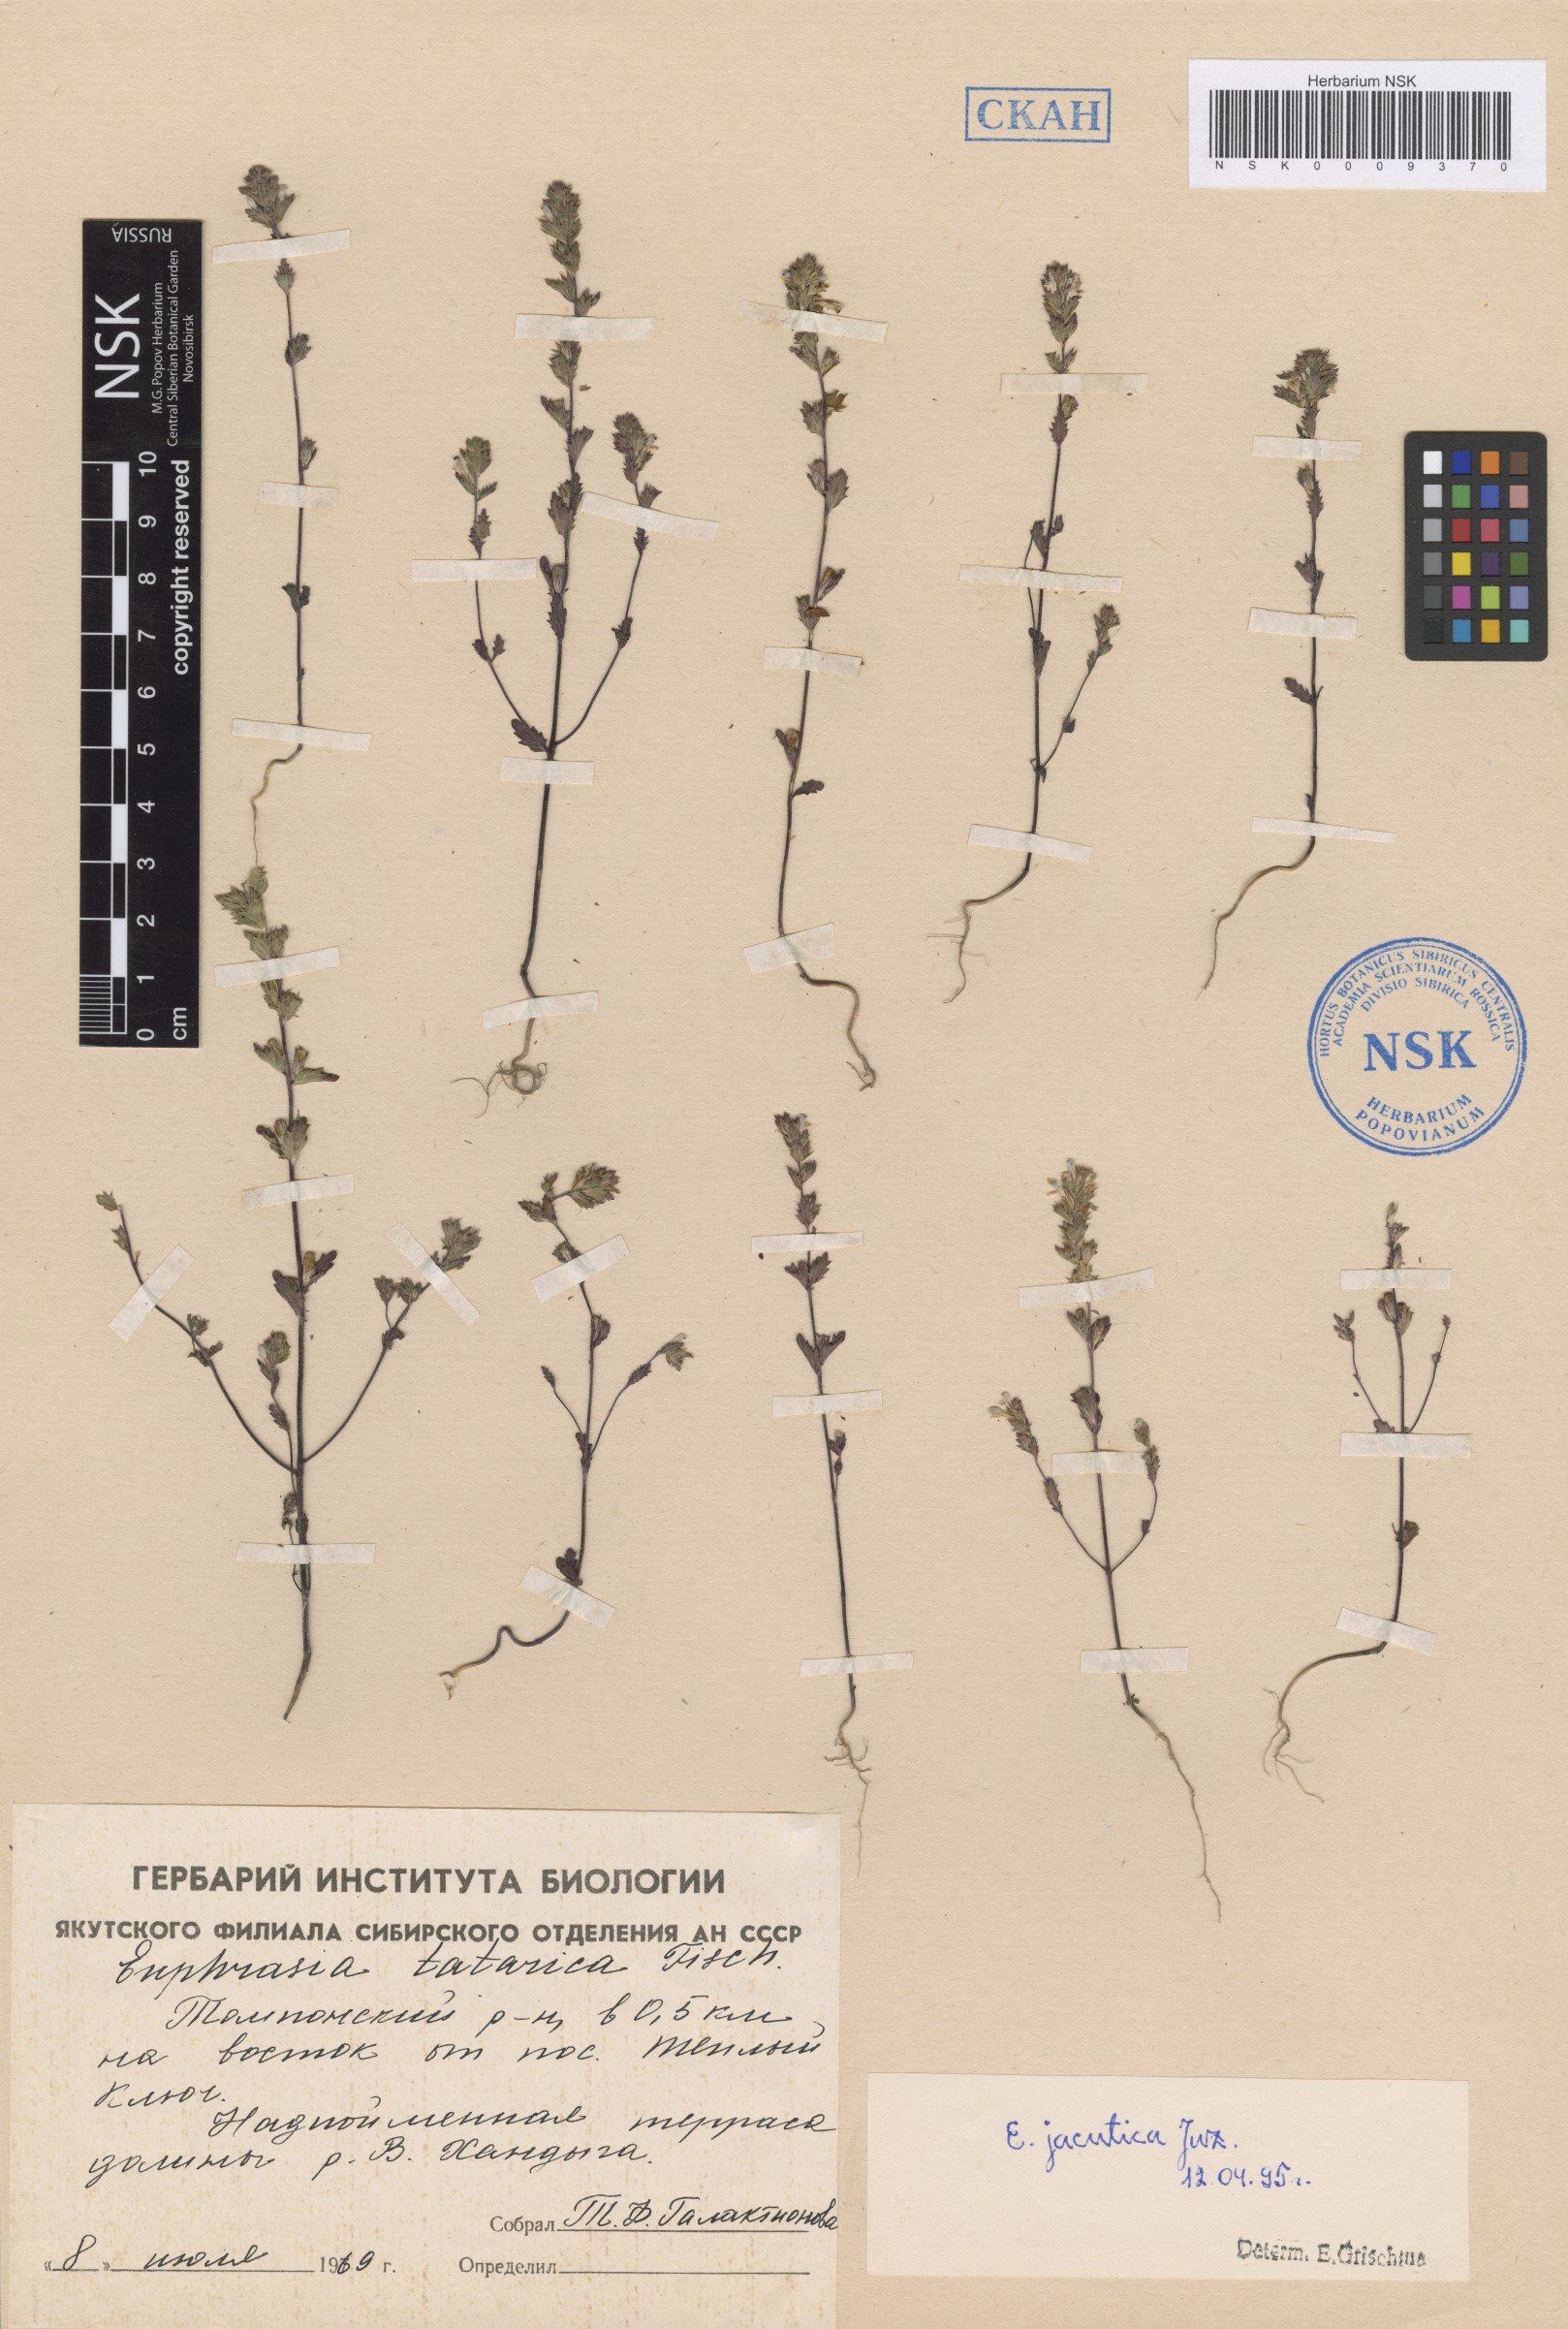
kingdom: Plantae
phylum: Tracheophyta
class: Magnoliopsida
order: Lamiales
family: Orobanchaceae
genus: Euphrasia
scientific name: Euphrasia jacutica
